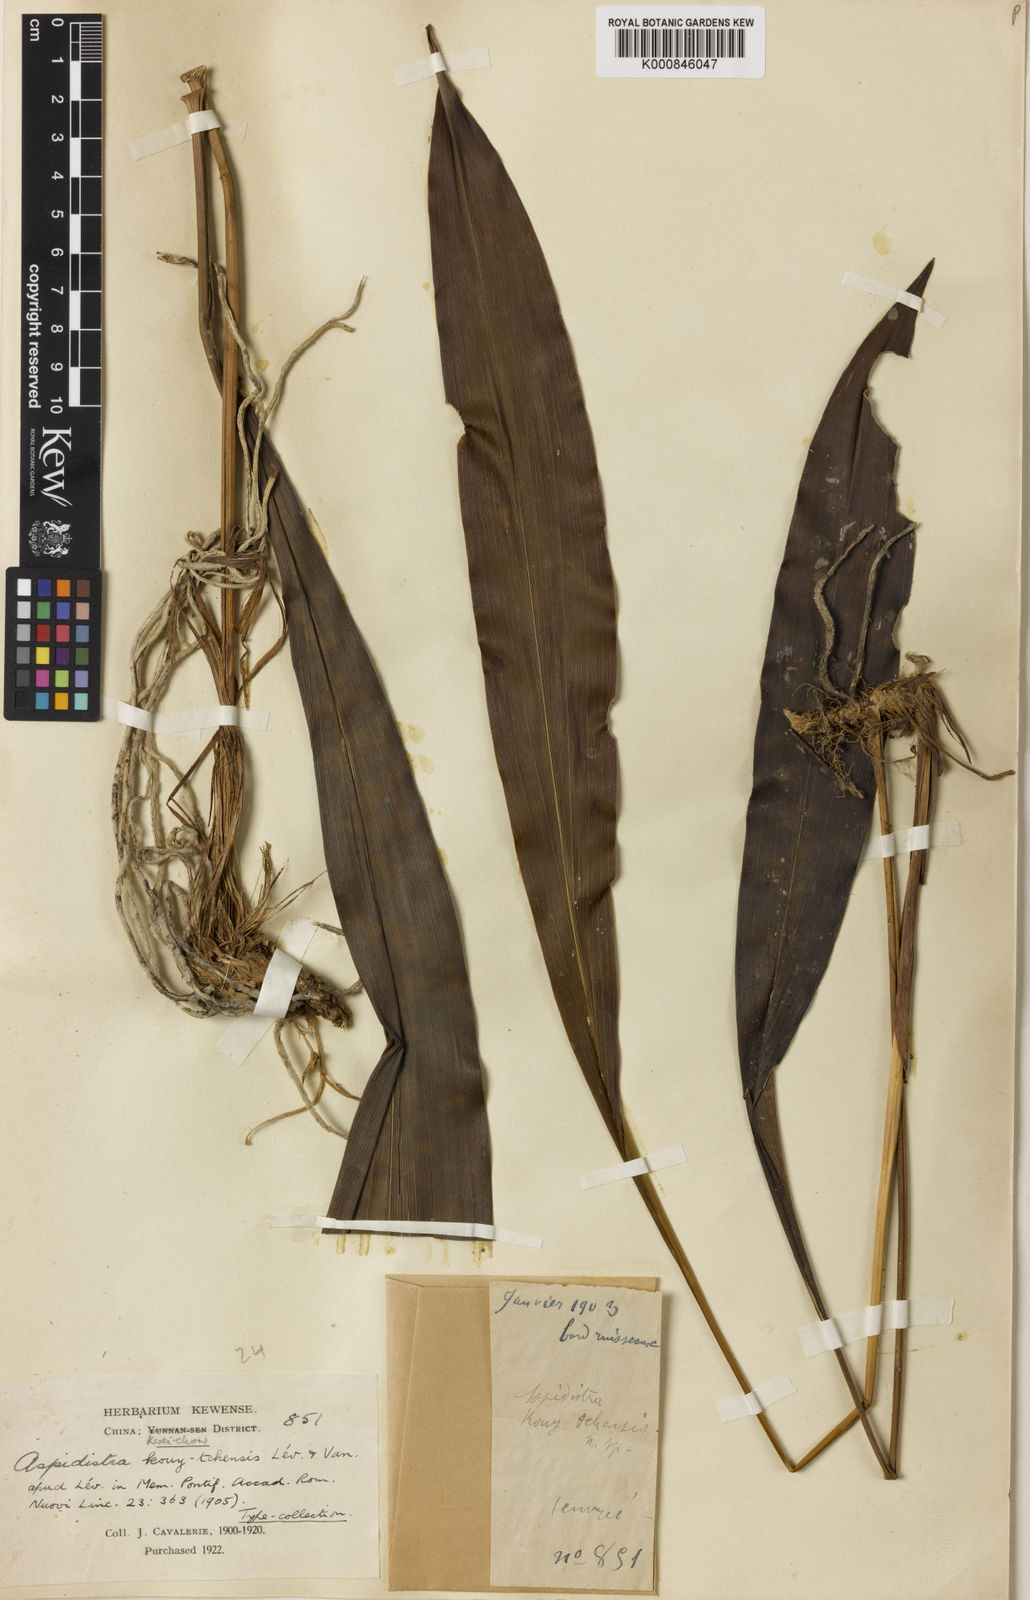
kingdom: Plantae
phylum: Tracheophyta
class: Liliopsida
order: Asparagales
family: Asparagaceae
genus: Aspidistra
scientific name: Aspidistra
